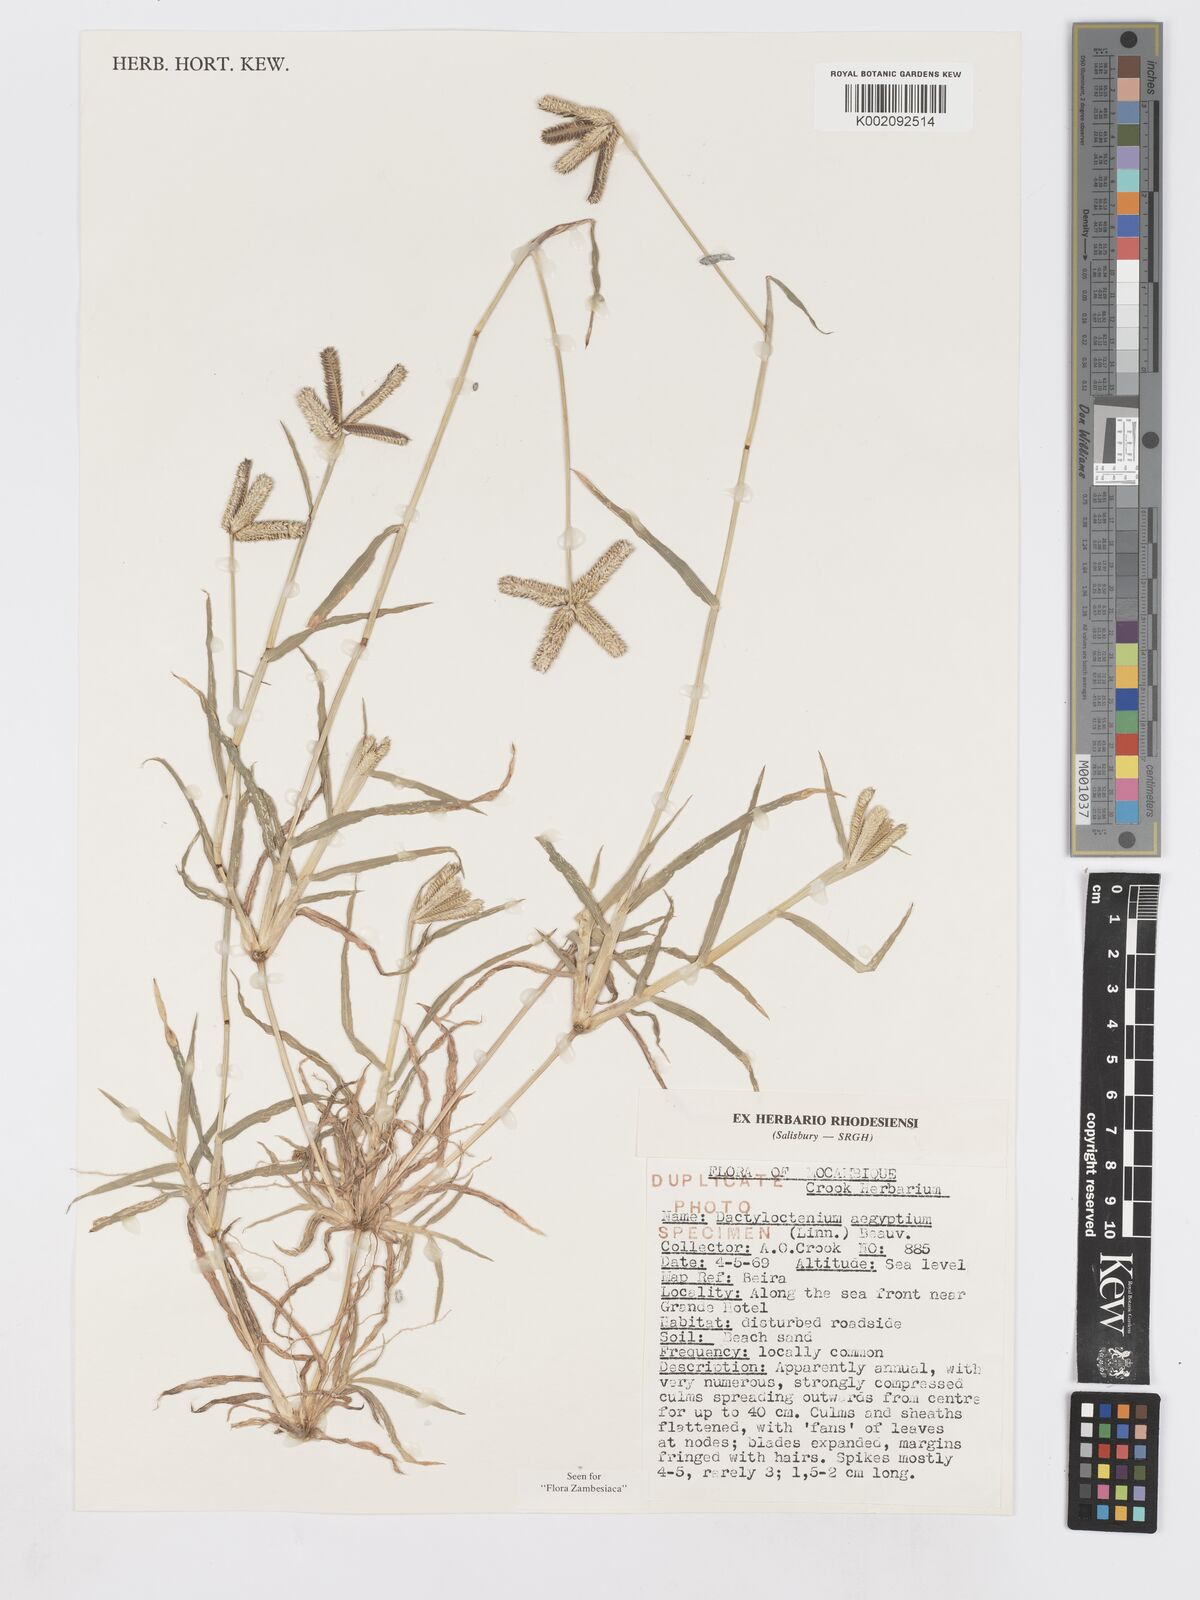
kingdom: Plantae
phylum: Tracheophyta
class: Liliopsida
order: Poales
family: Poaceae
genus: Dactyloctenium
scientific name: Dactyloctenium aegyptium
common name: Egyptian grass
